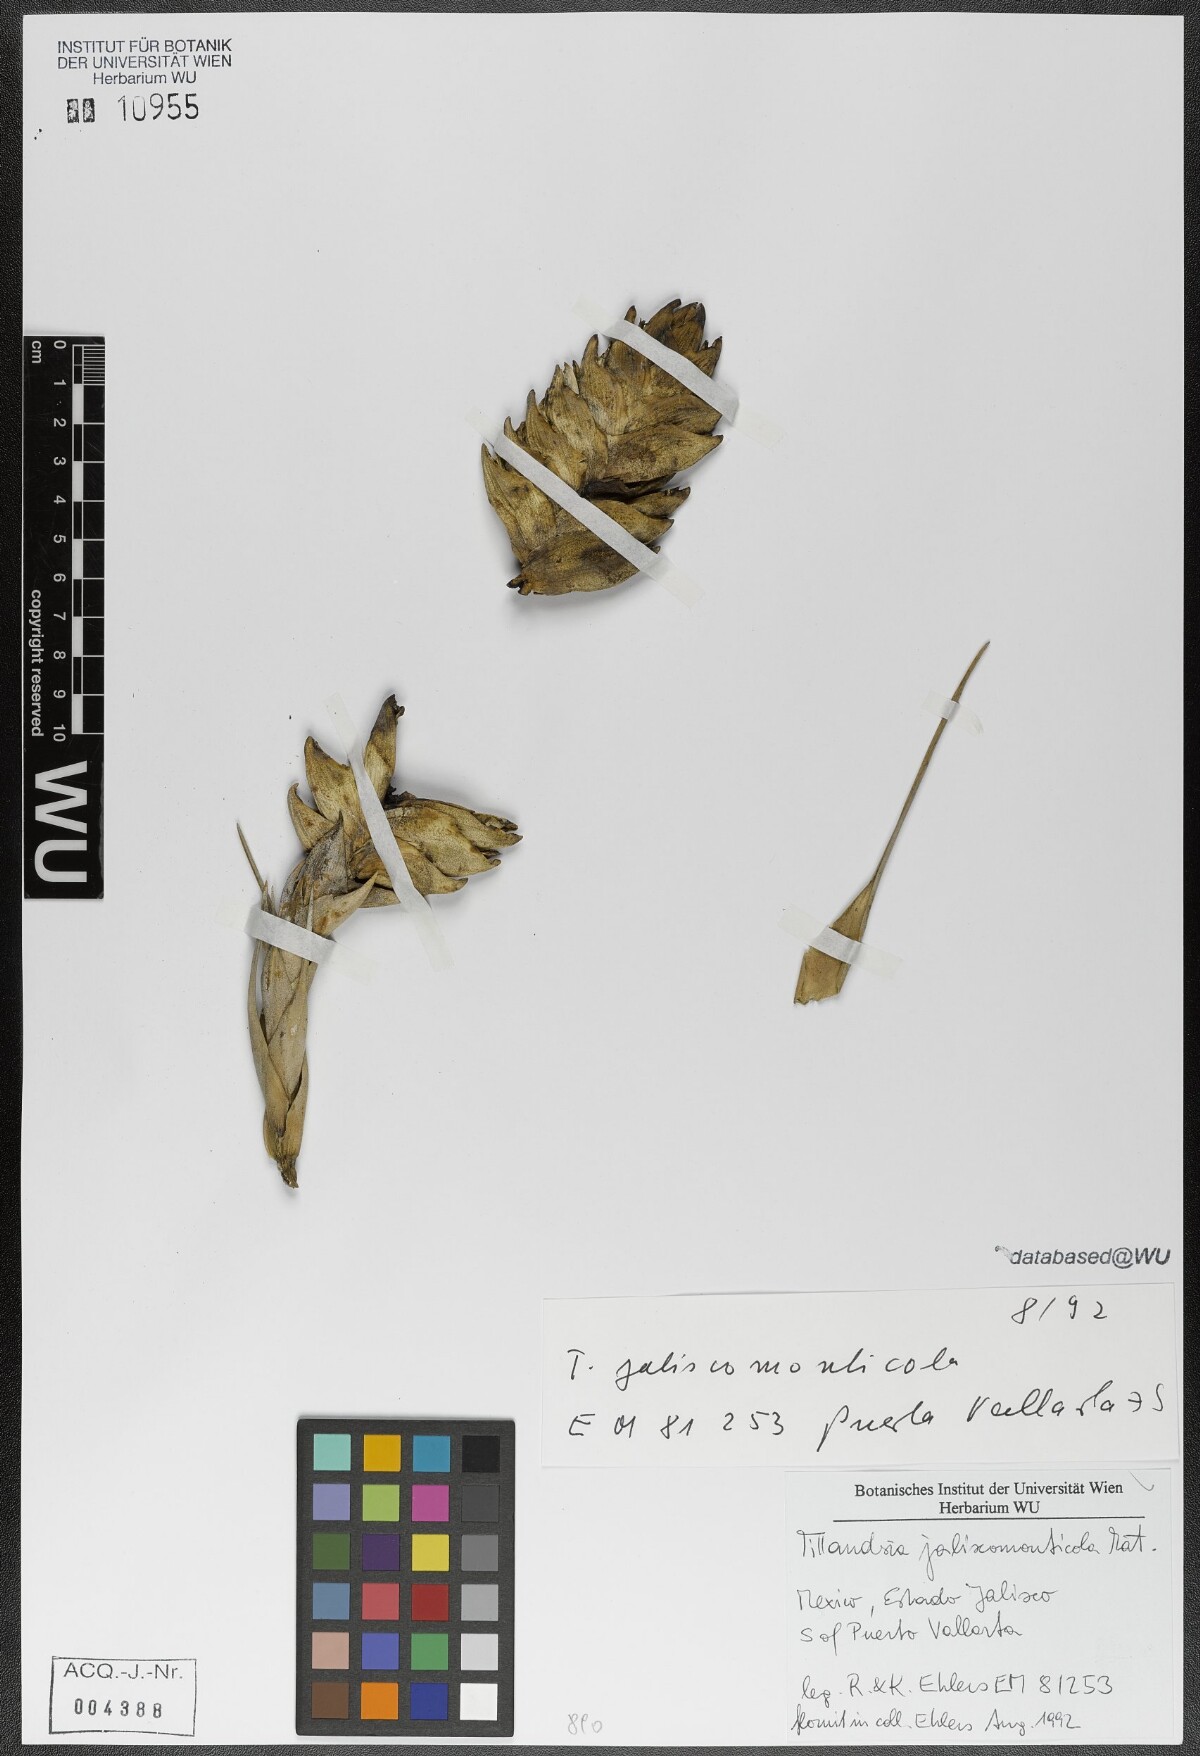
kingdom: Plantae
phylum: Tracheophyta
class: Liliopsida
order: Poales
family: Bromeliaceae
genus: Tillandsia
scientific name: Tillandsia compressa
